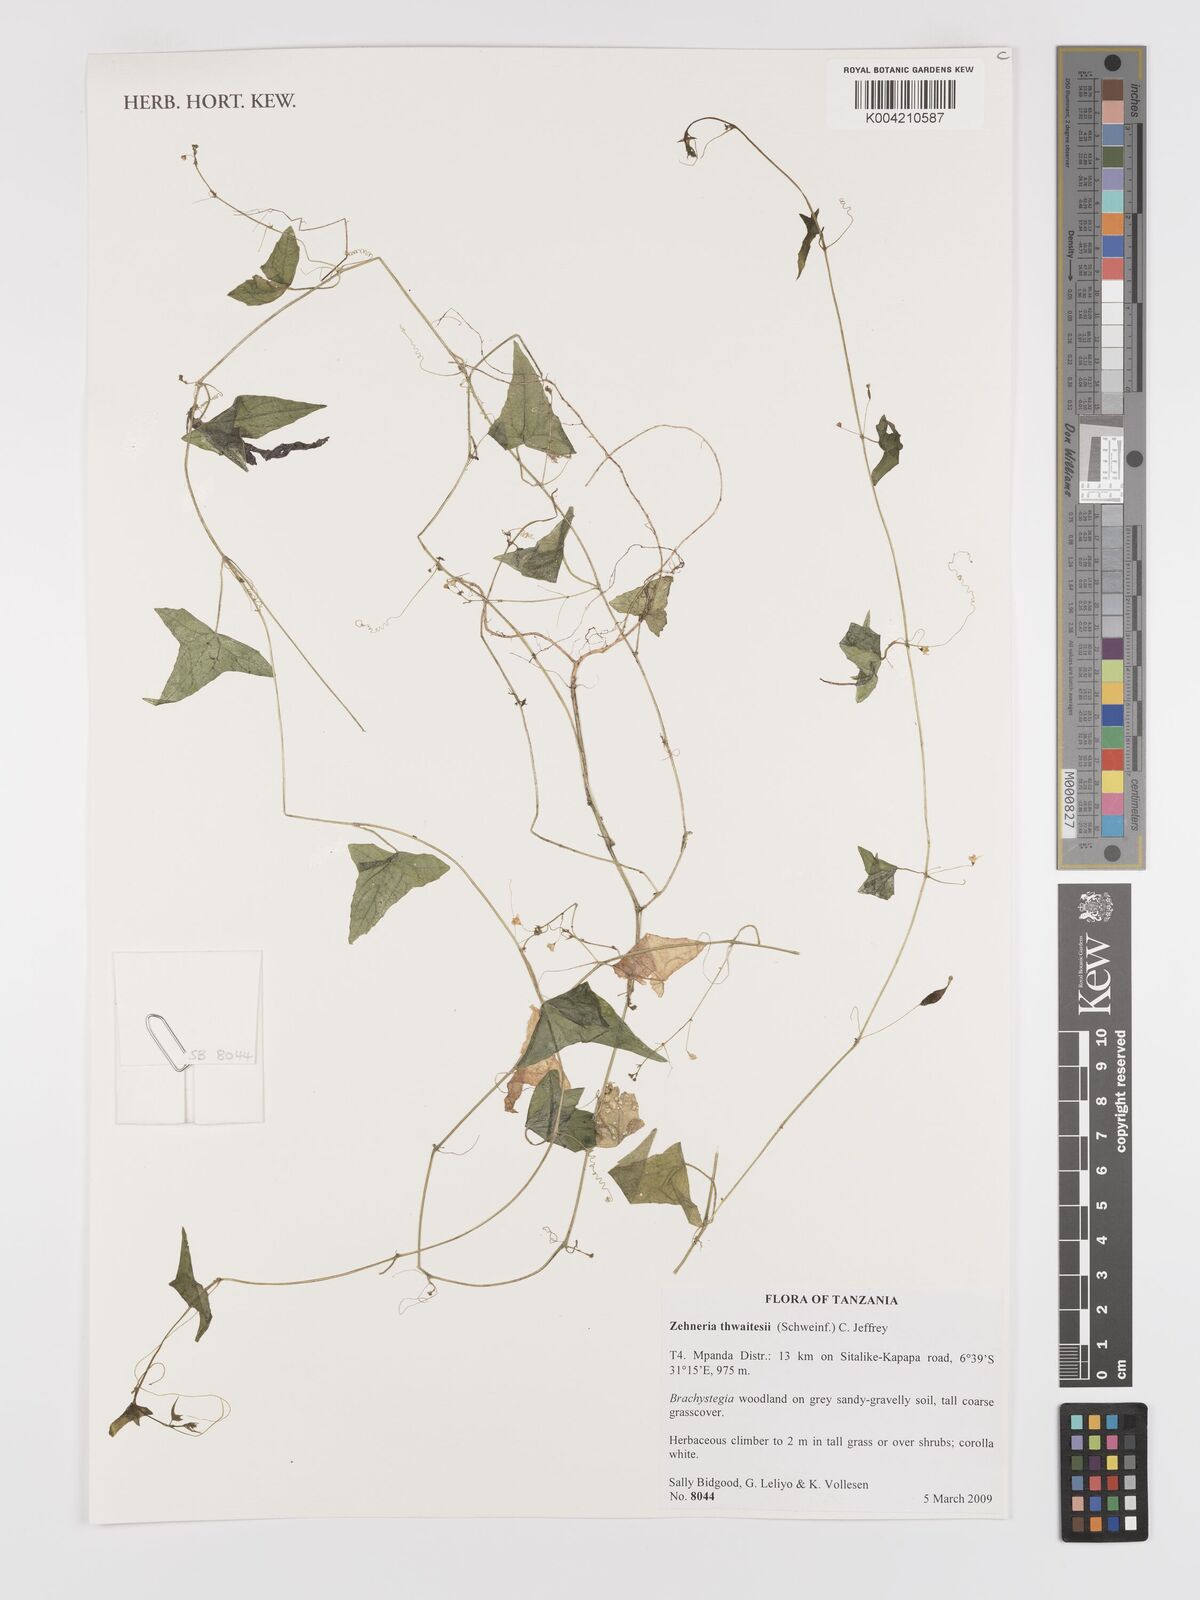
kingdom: Plantae
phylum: Tracheophyta
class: Magnoliopsida
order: Cucurbitales
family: Cucurbitaceae
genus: Zehneria
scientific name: Zehneria thwaitesii
